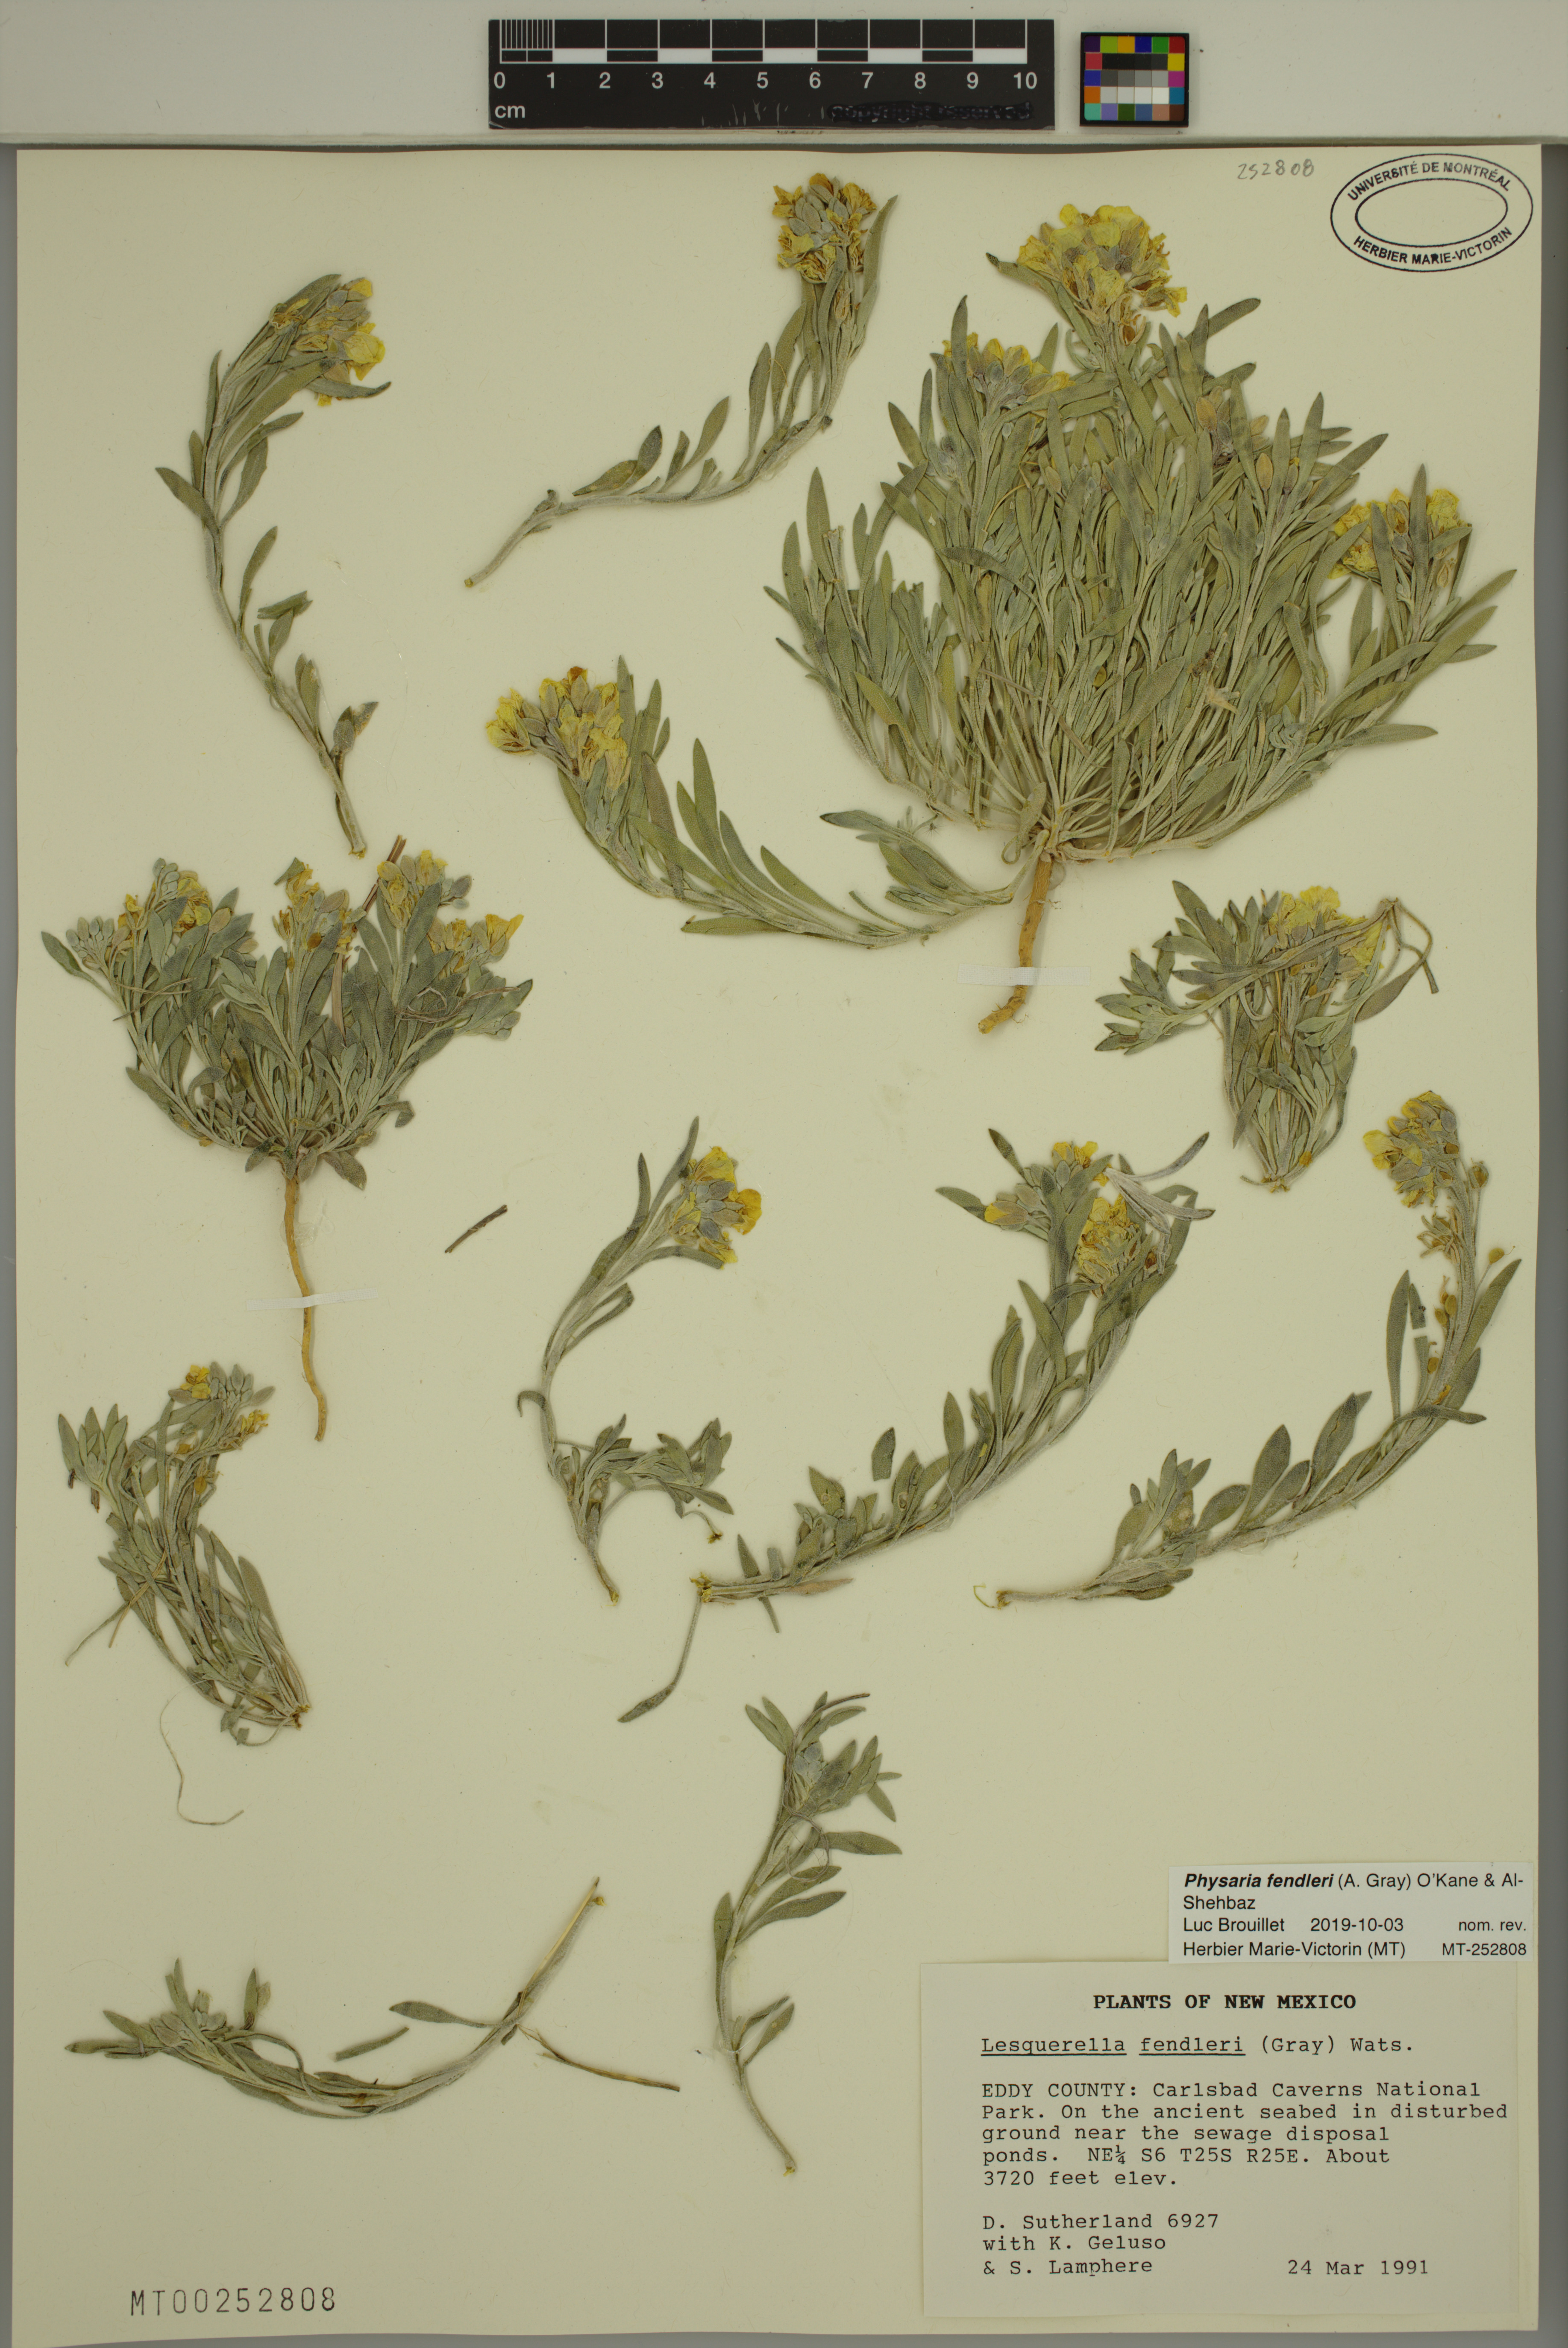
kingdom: Plantae
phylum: Tracheophyta
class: Magnoliopsida
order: Brassicales
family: Brassicaceae
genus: Physaria
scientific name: Physaria fendleri
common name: Fendler's bladderpod
